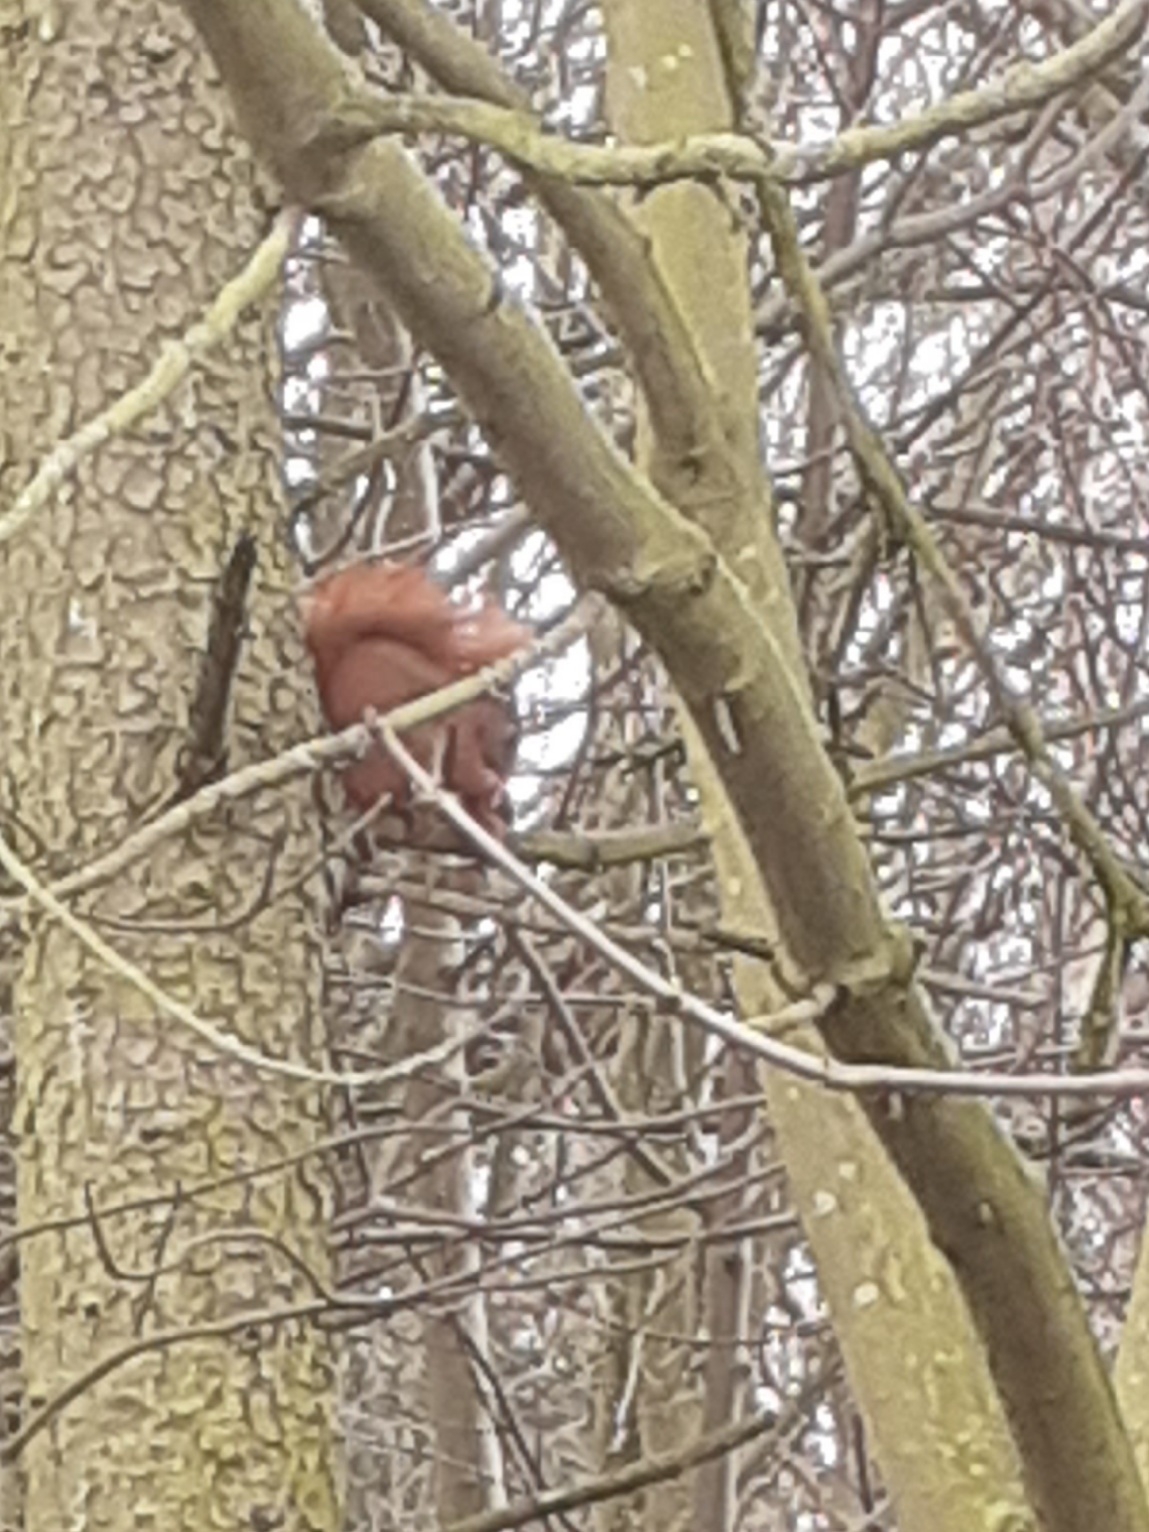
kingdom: Animalia
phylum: Chordata
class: Mammalia
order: Rodentia
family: Sciuridae
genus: Sciurus
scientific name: Sciurus vulgaris
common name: Egern
